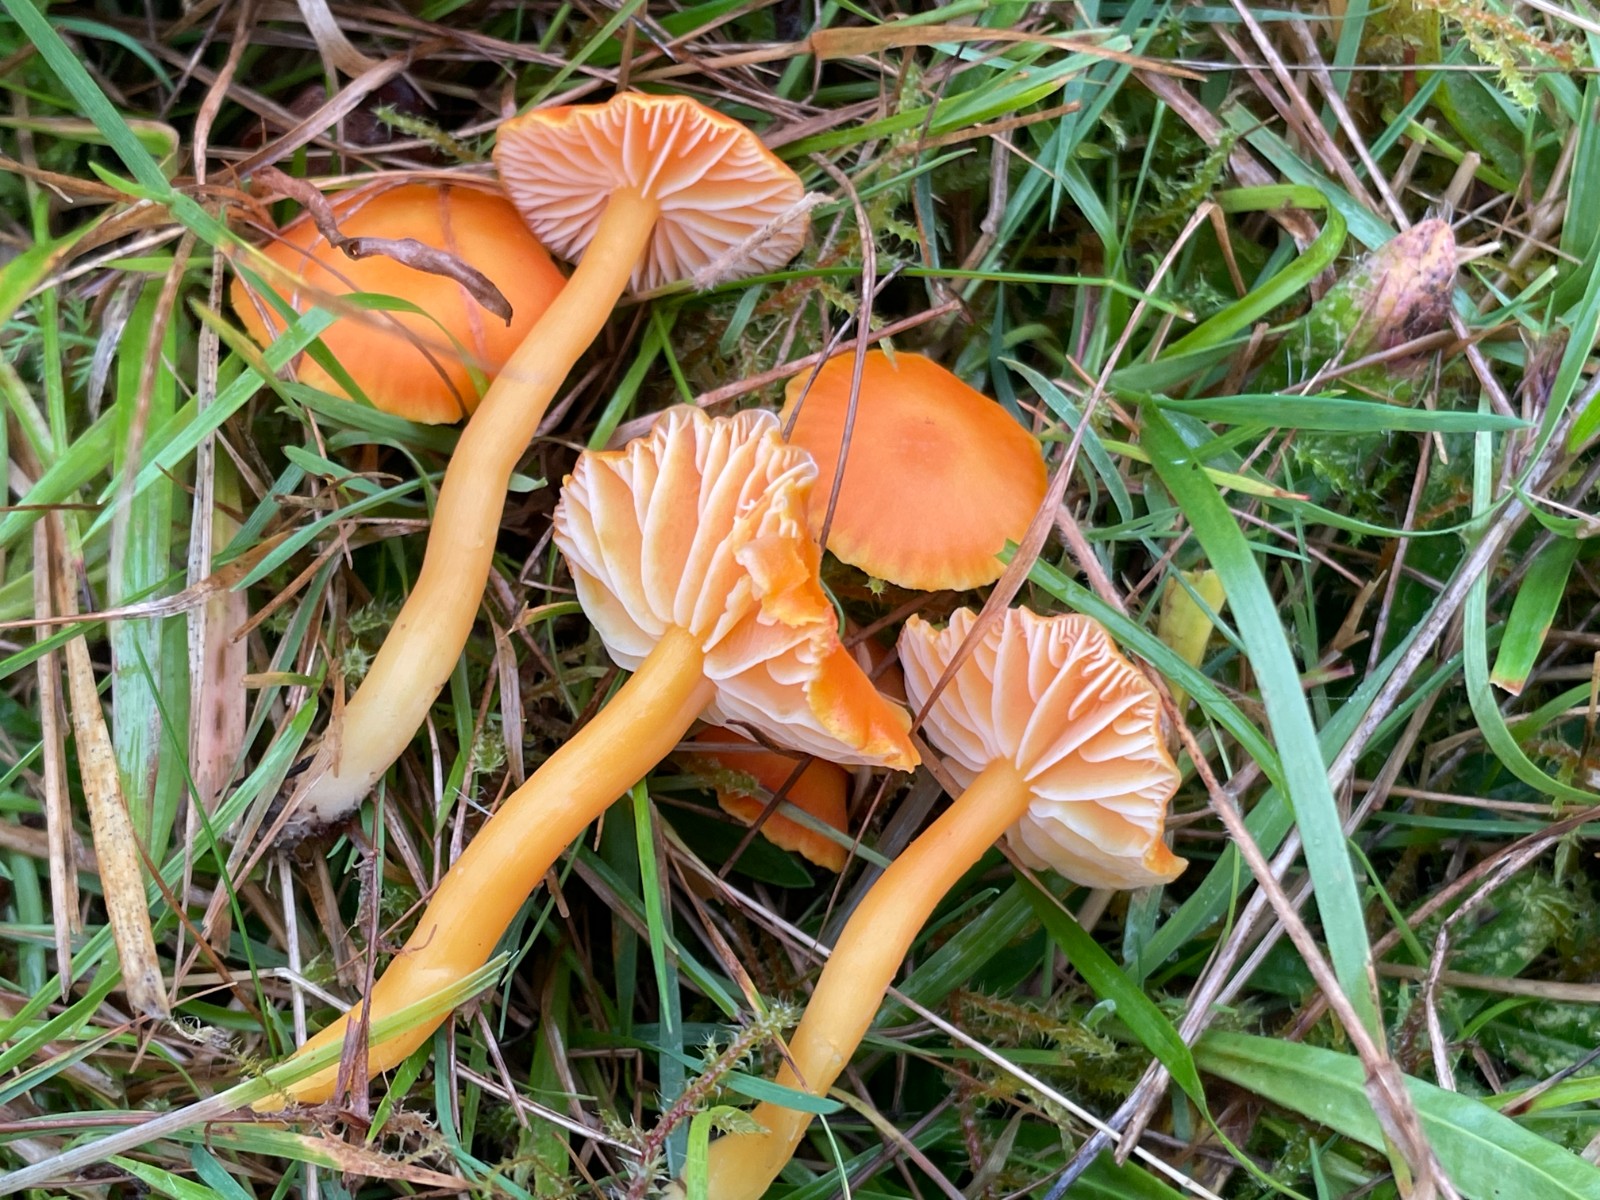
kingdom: Fungi
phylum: Basidiomycota
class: Agaricomycetes
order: Agaricales
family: Hygrophoraceae
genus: Hygrocybe
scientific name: Hygrocybe reidii
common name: honning-vokshat
